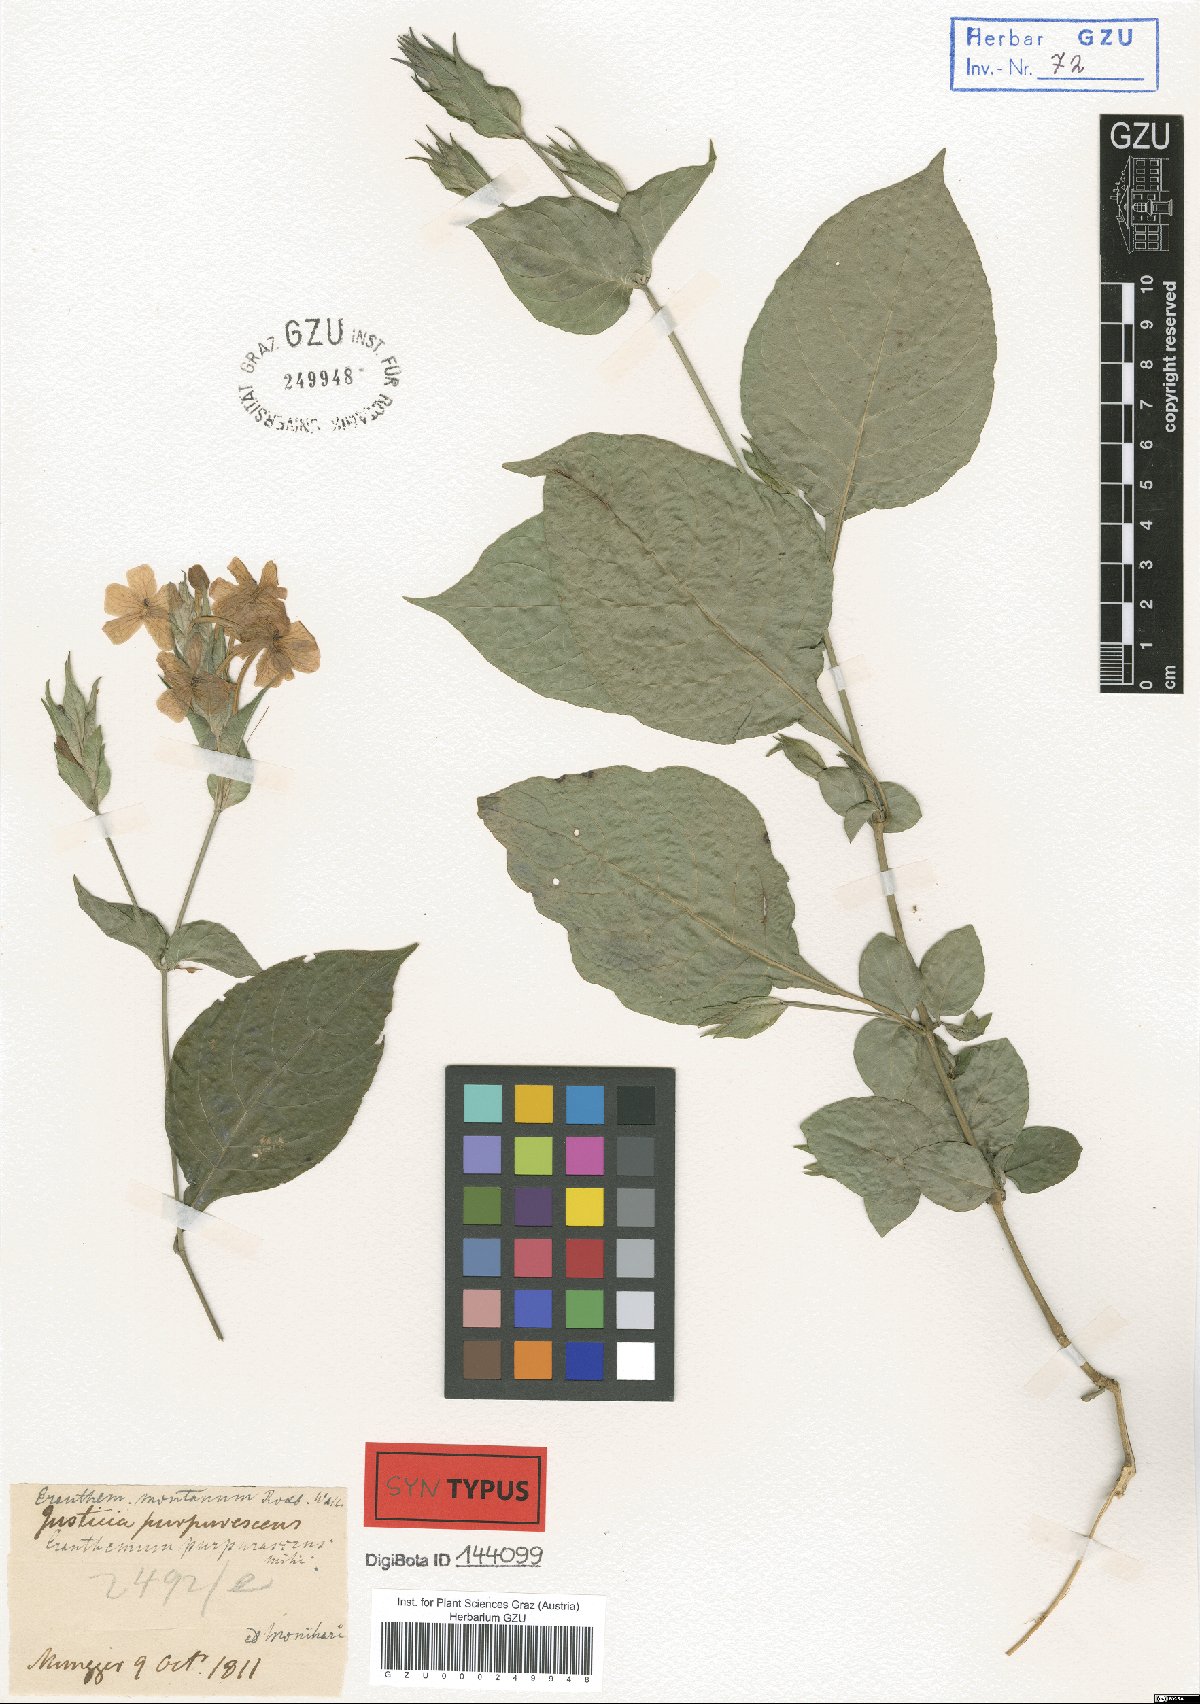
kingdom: Plantae
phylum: Tracheophyta
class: Magnoliopsida
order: Lamiales
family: Acanthaceae
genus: Eranthemum
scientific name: Eranthemum purpurascens
